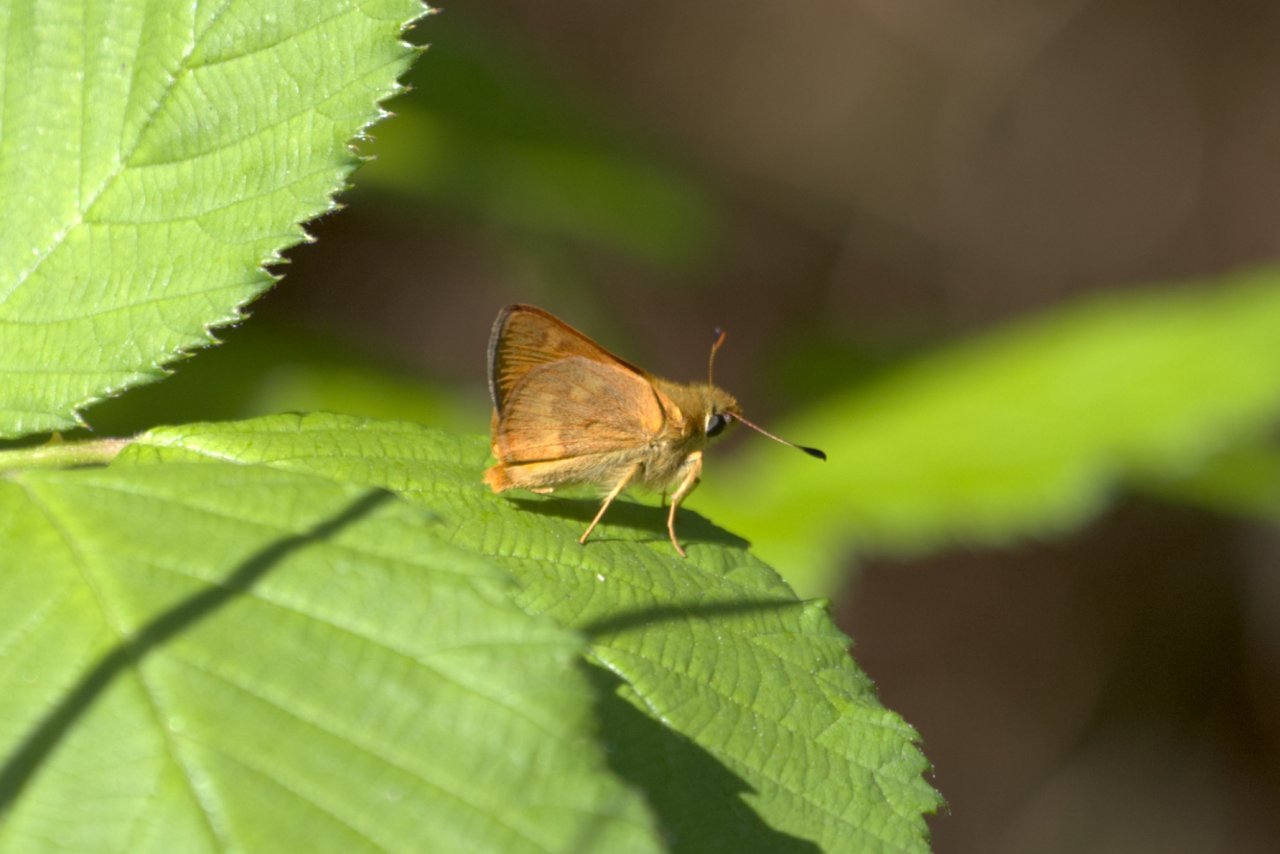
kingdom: Animalia
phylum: Arthropoda
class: Insecta
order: Lepidoptera
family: Hesperiidae
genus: Ochlodes
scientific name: Ochlodes sylvanoides
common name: Woodland Skipper
